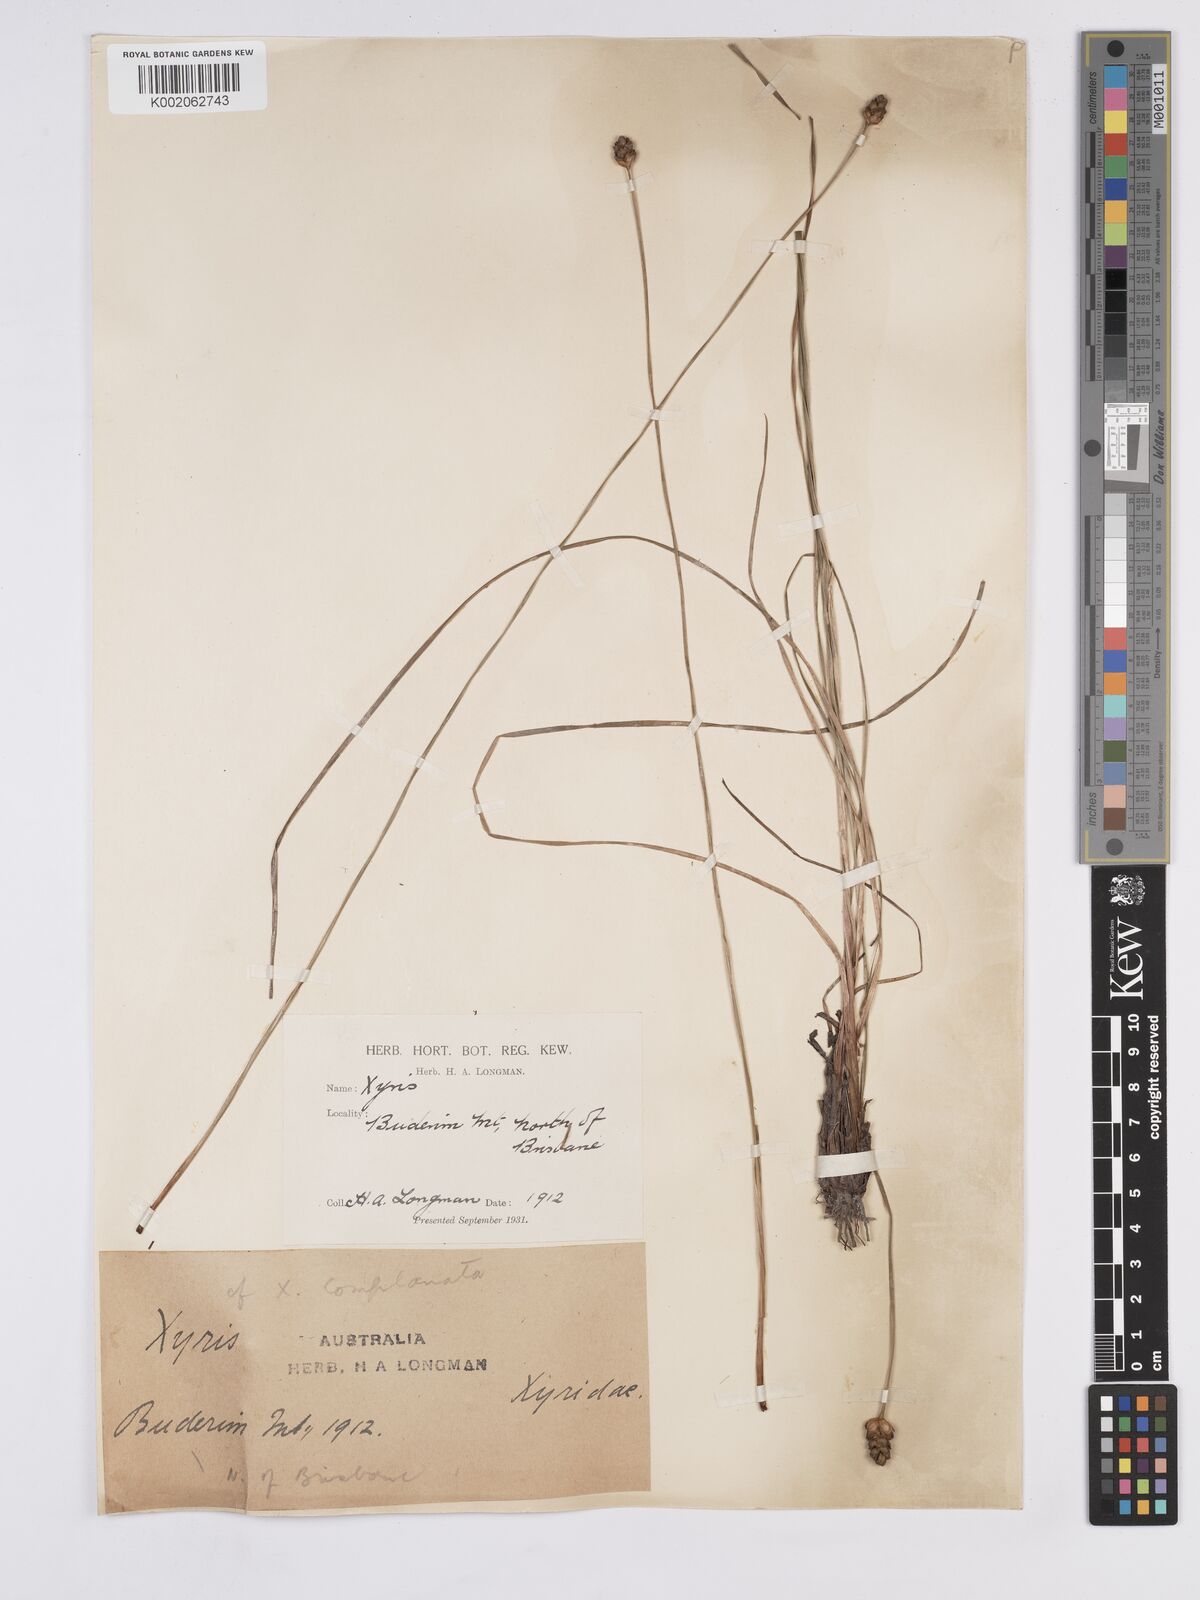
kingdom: Plantae
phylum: Tracheophyta
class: Liliopsida
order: Poales
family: Xyridaceae
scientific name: Xyridaceae
